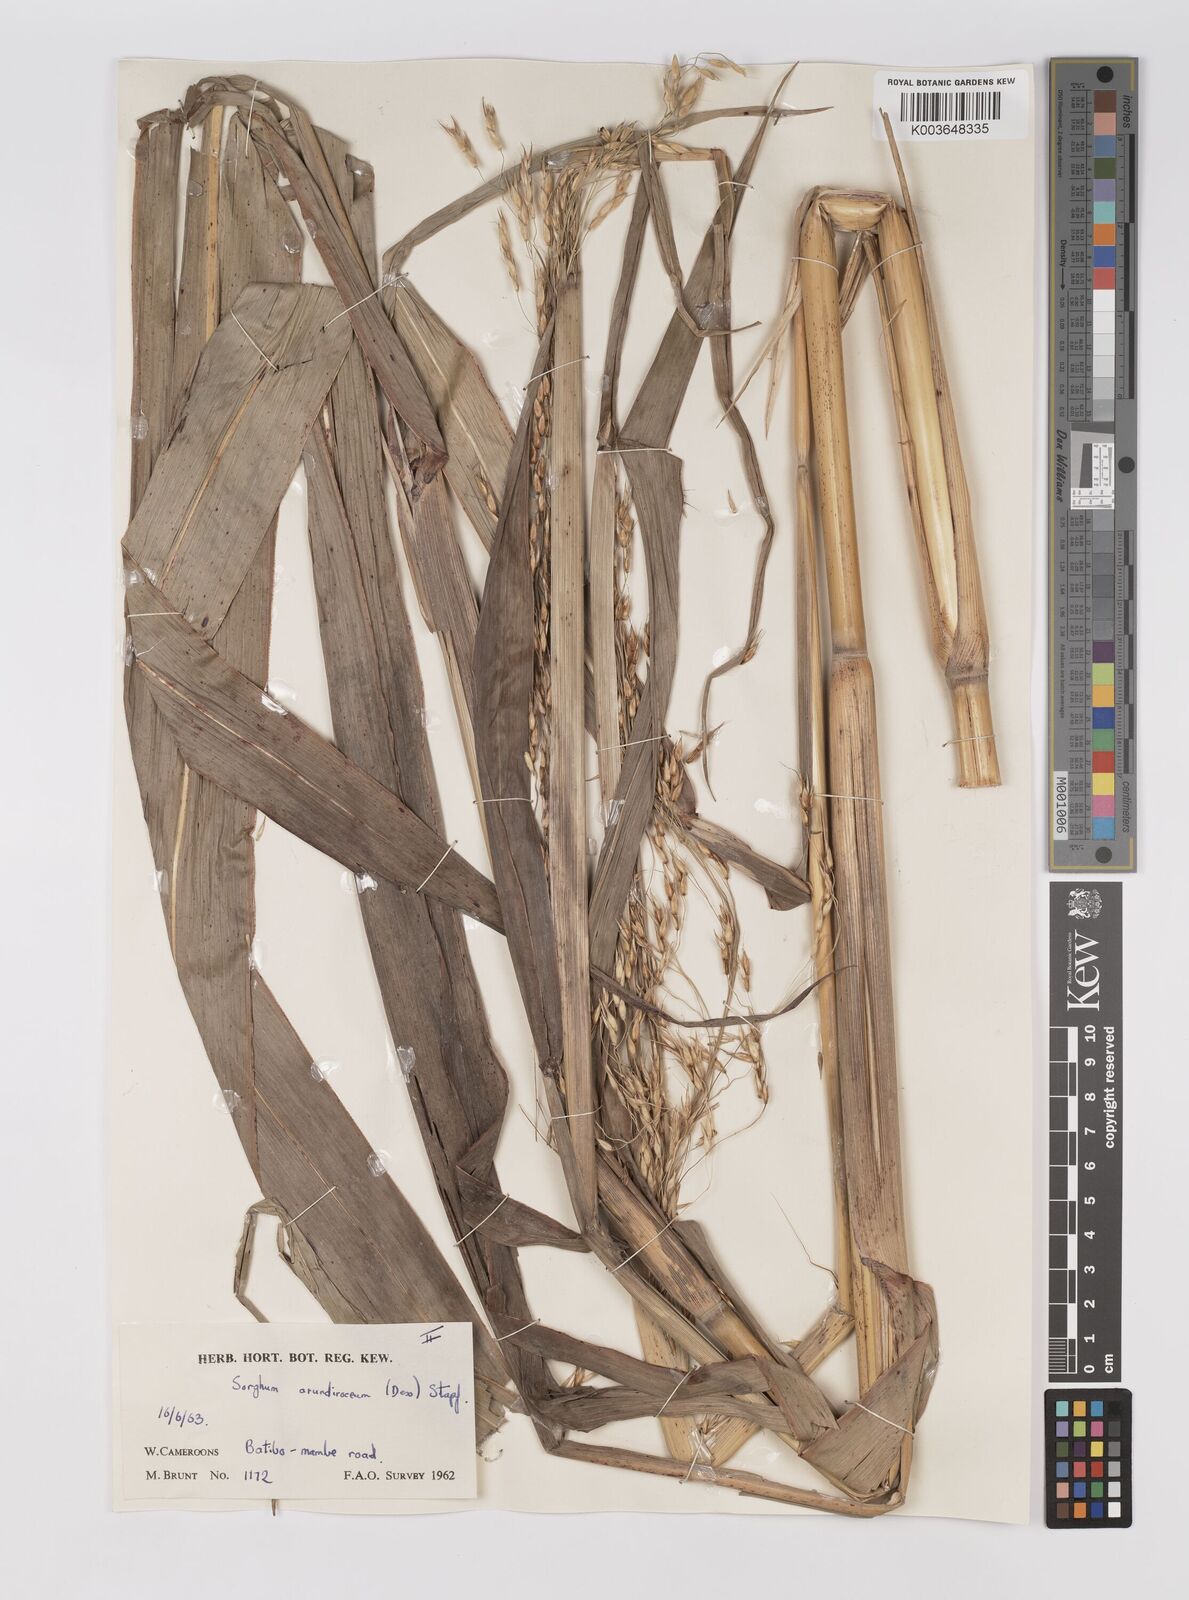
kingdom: Plantae
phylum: Tracheophyta
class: Liliopsida
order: Poales
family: Poaceae
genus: Sorghum
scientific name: Sorghum arundinaceum
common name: Sorghum
